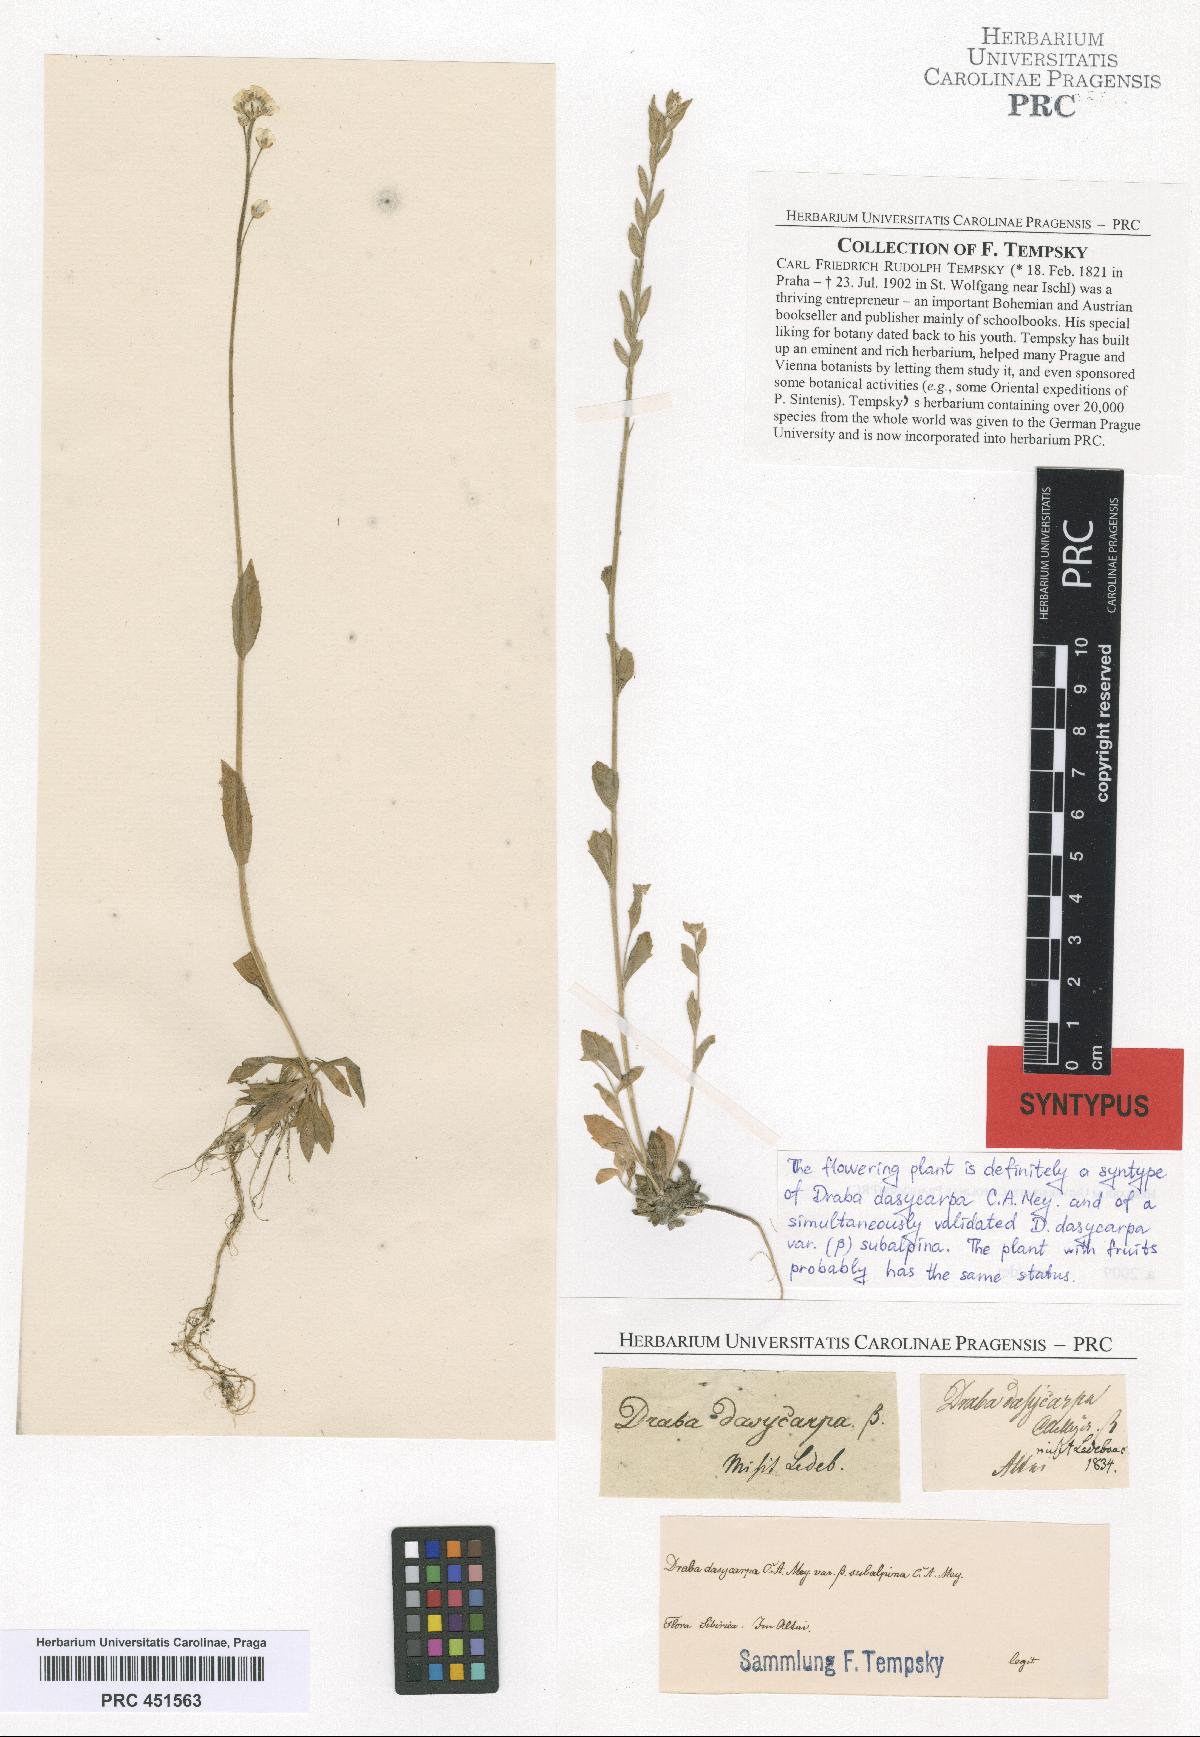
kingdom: Plantae
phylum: Tracheophyta
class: Magnoliopsida
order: Brassicales
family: Brassicaceae
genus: Draba
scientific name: Draba subamplexicaulis
